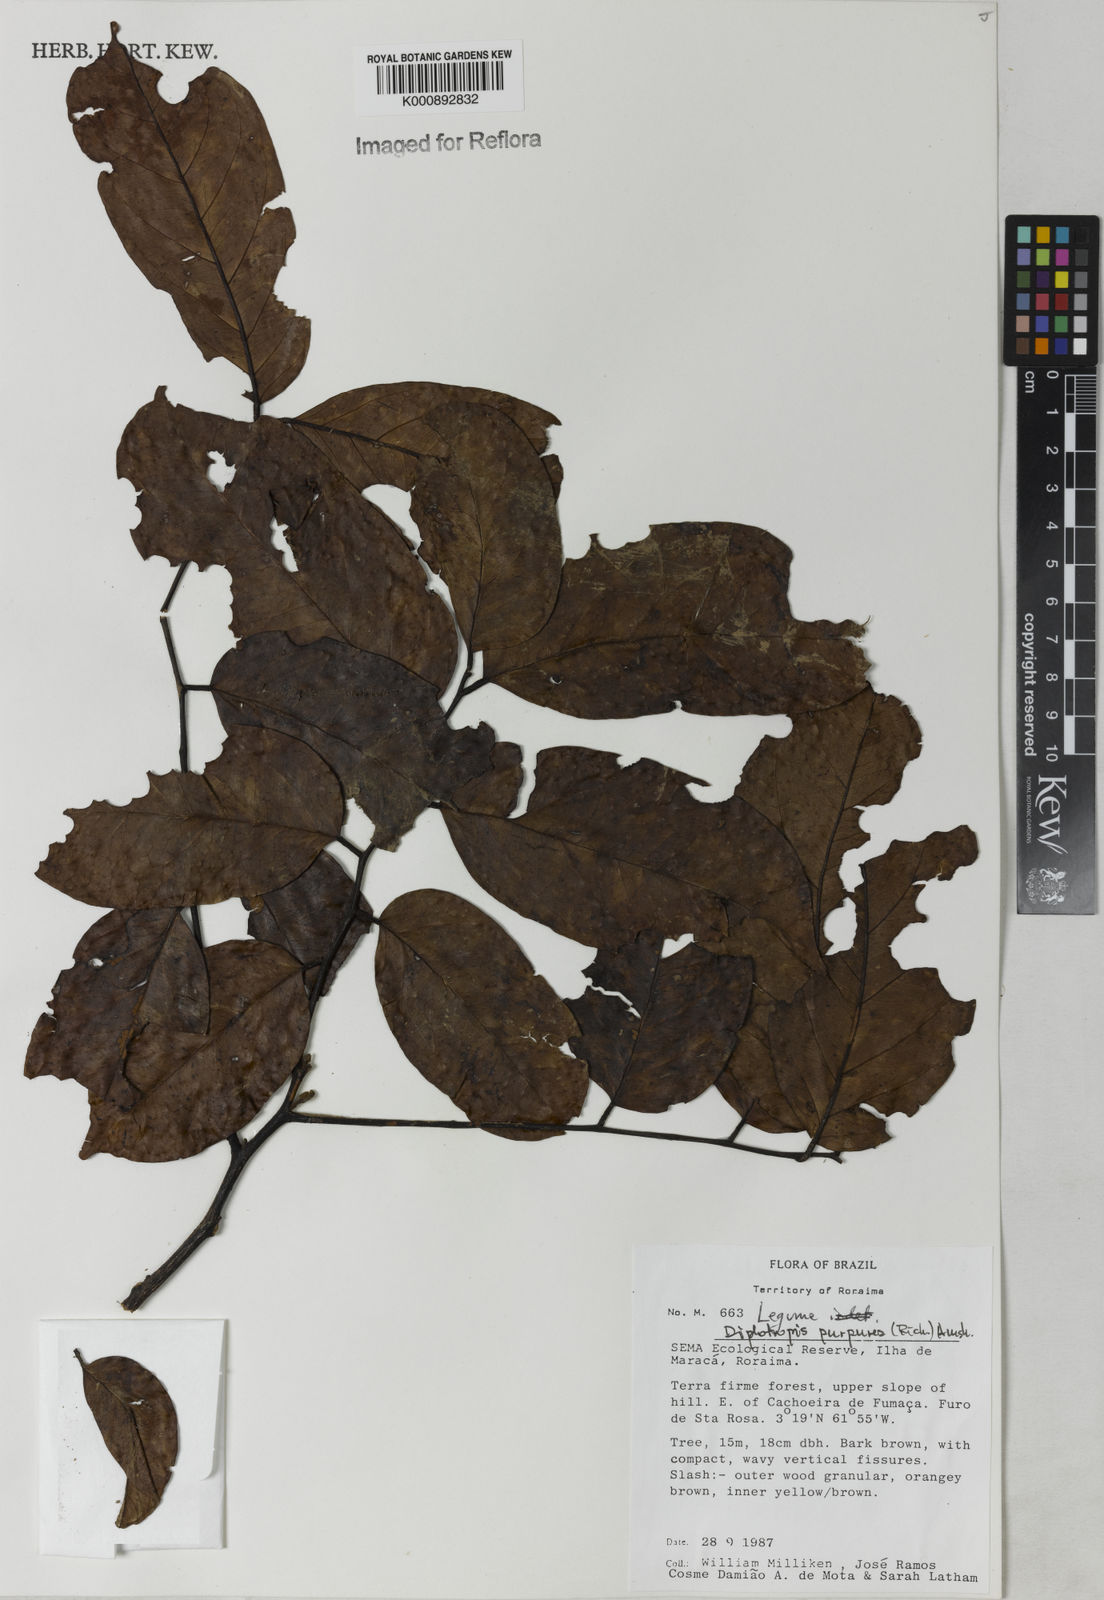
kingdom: Plantae
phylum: Tracheophyta
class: Magnoliopsida
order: Fabales
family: Fabaceae
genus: Diplotropis
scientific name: Diplotropis purpurea
